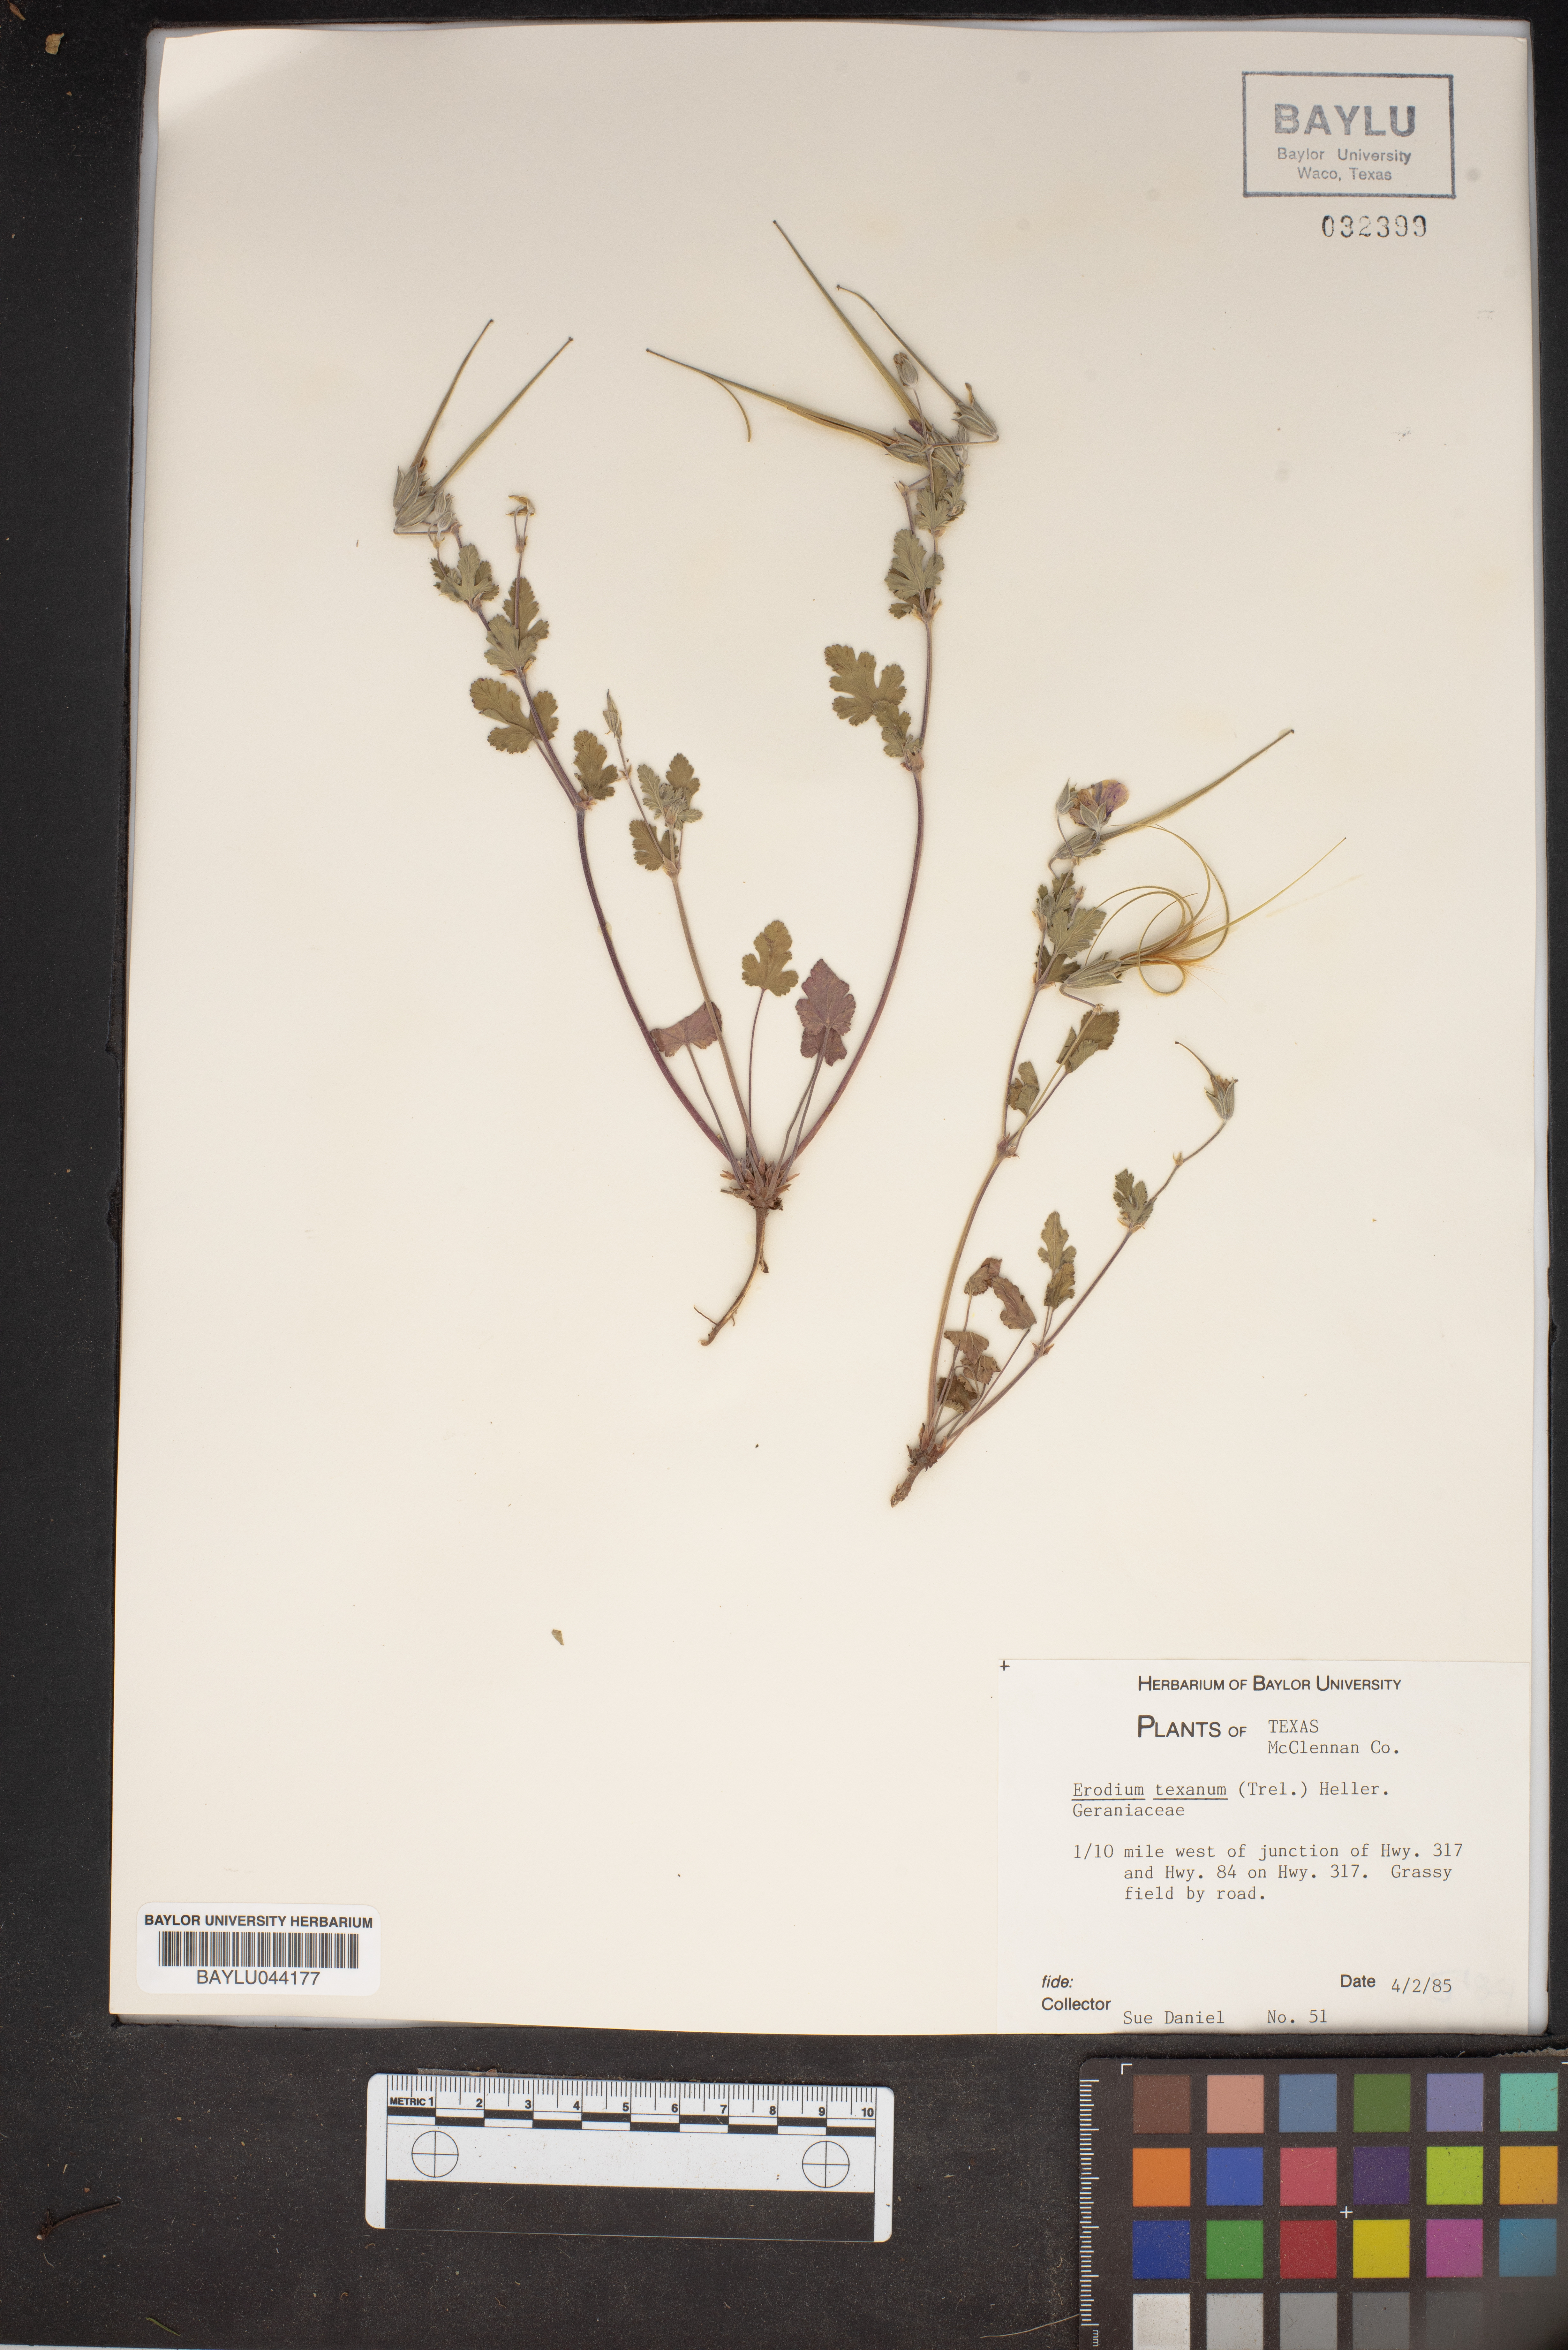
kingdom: Plantae
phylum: Tracheophyta
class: Magnoliopsida
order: Geraniales
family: Geraniaceae
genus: Erodium
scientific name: Erodium texanum
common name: Texas stork's-bill
